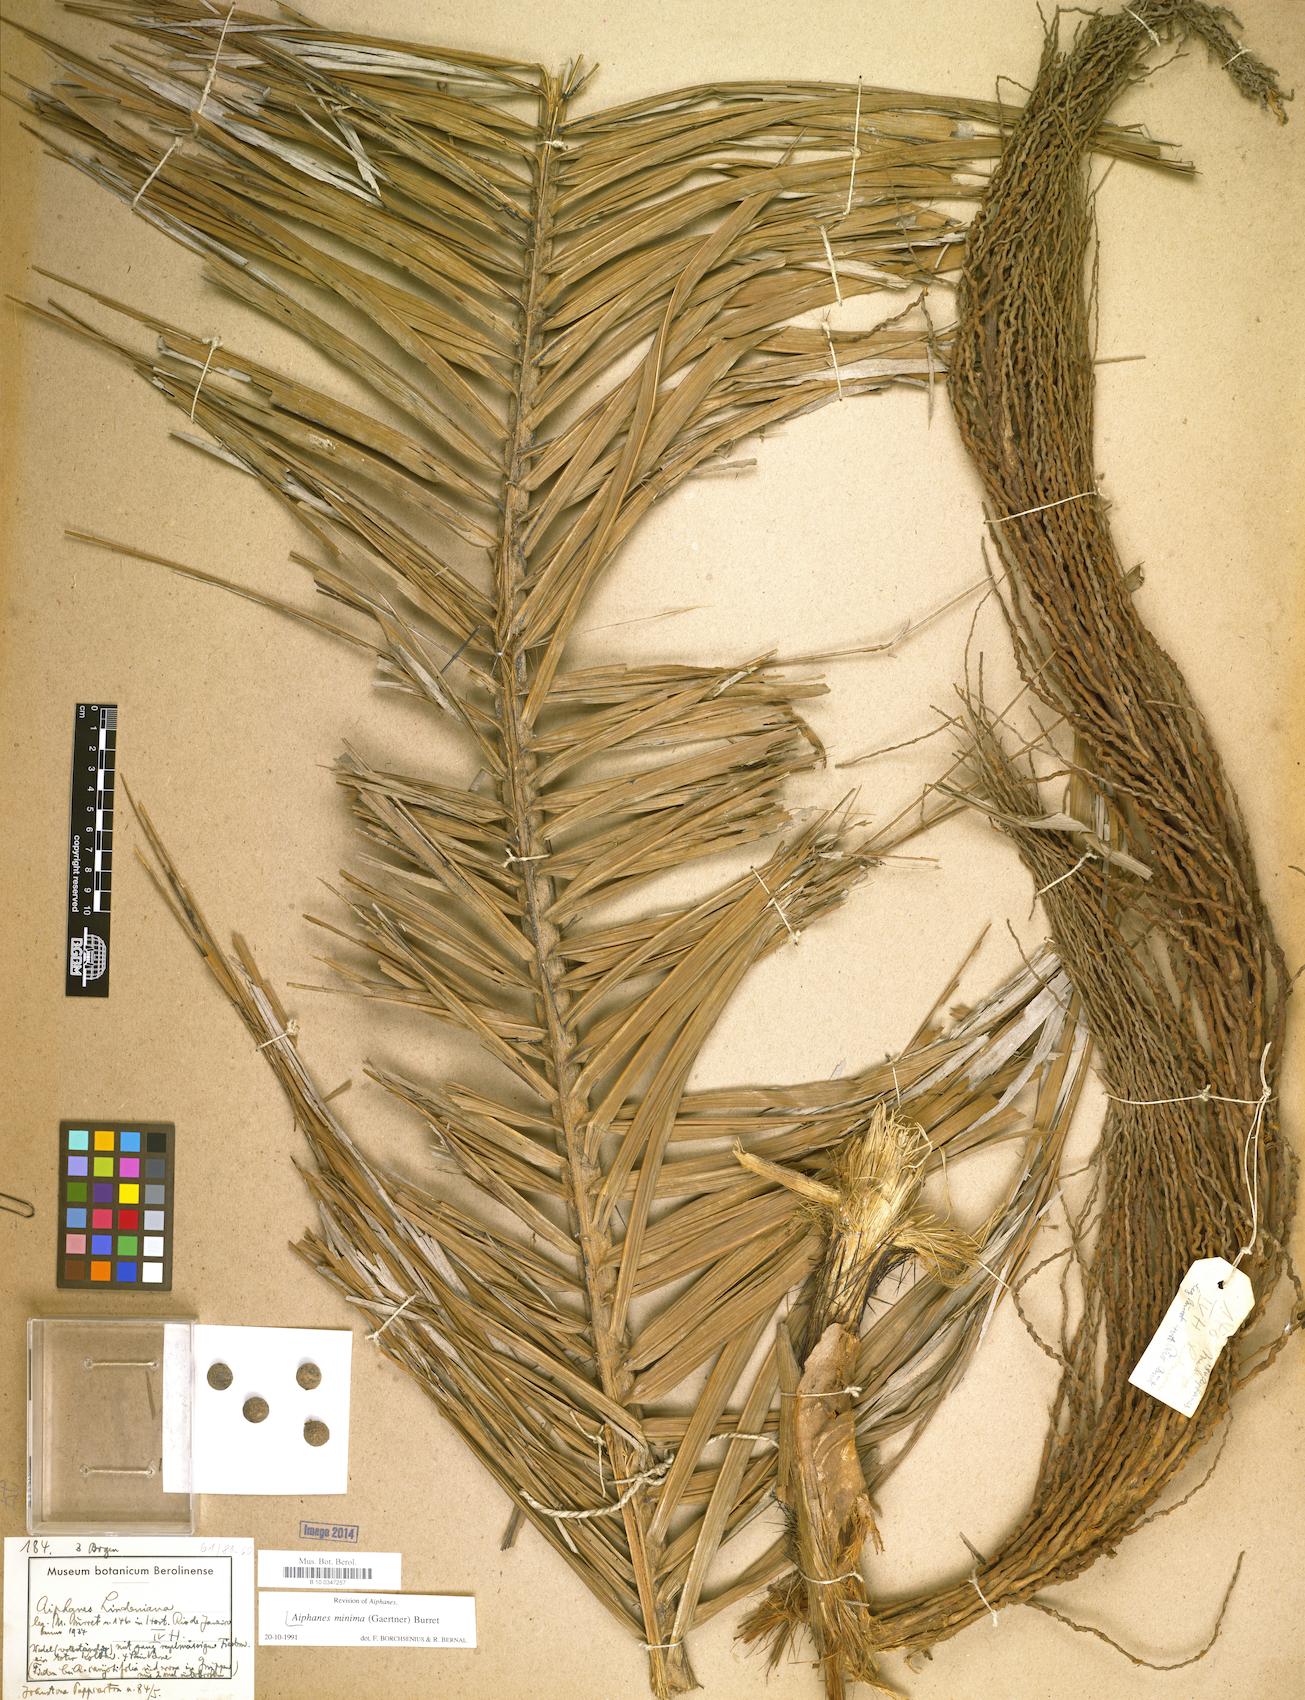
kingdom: Plantae
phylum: Tracheophyta
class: Liliopsida
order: Arecales
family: Arecaceae
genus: Aiphanes
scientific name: Aiphanes minima
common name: Grigri
